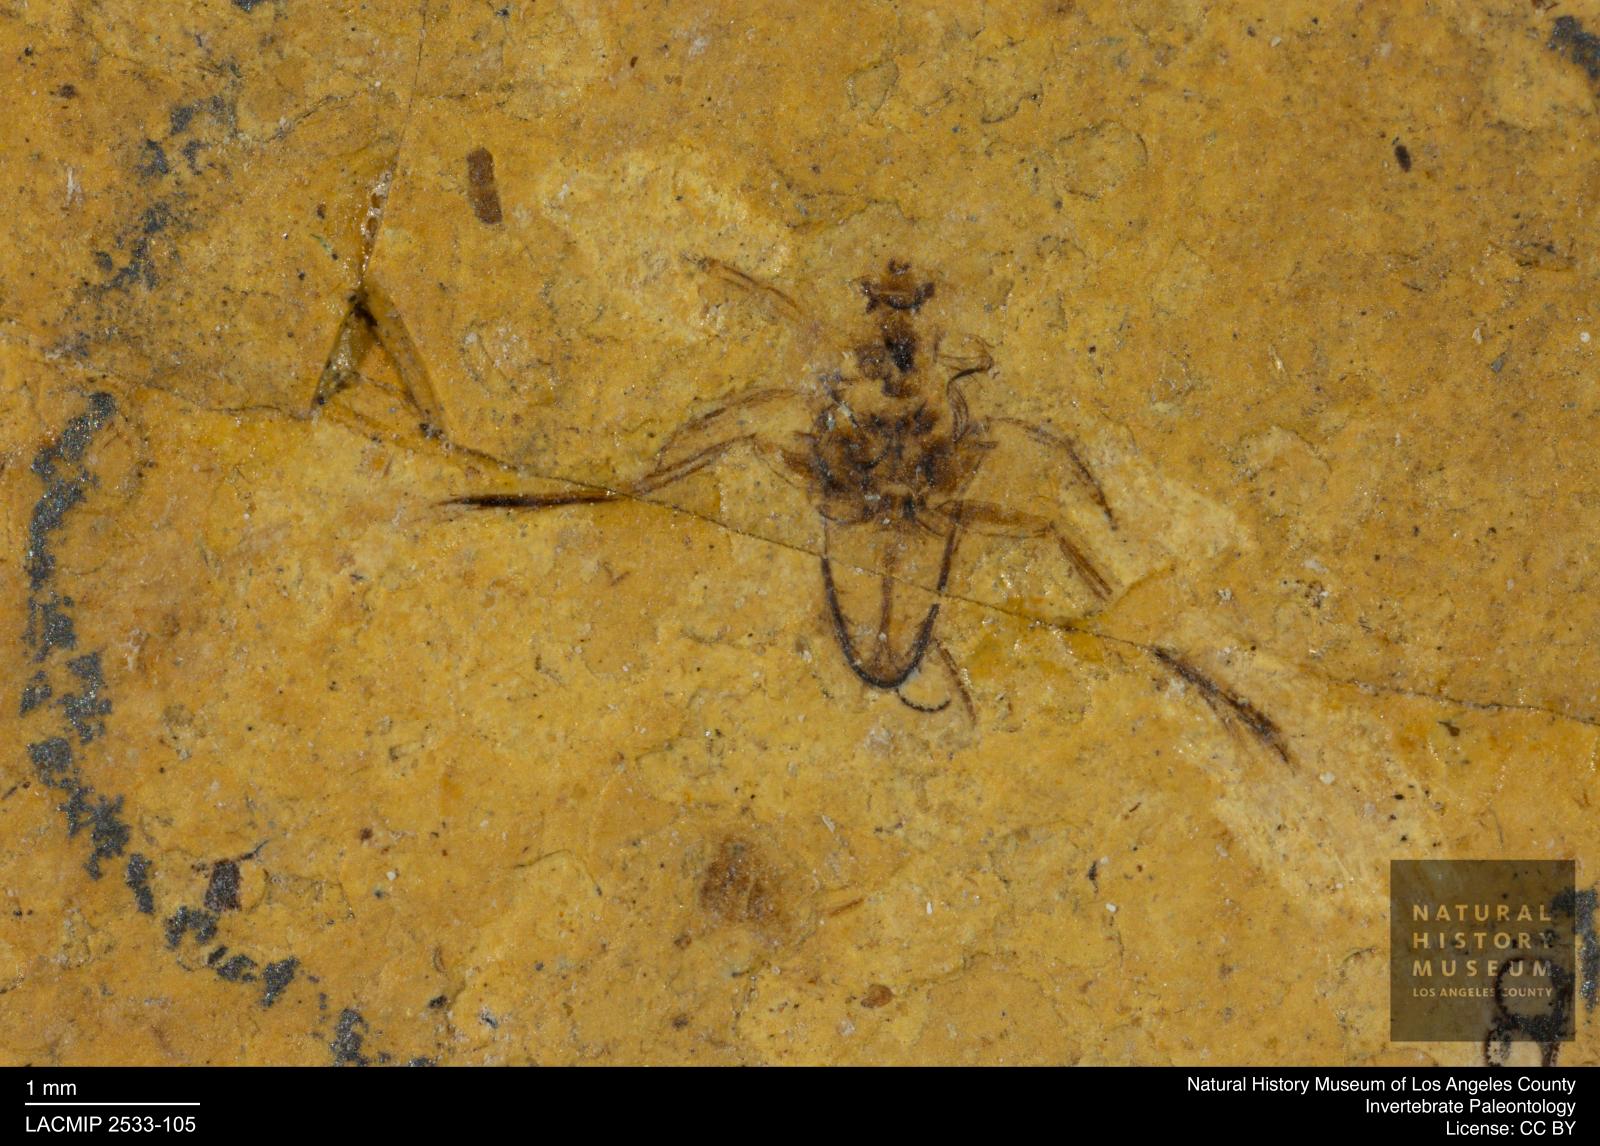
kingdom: Animalia
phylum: Arthropoda
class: Insecta
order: Hemiptera
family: Notonectidae
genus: Notonecta
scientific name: Notonecta primaeva
